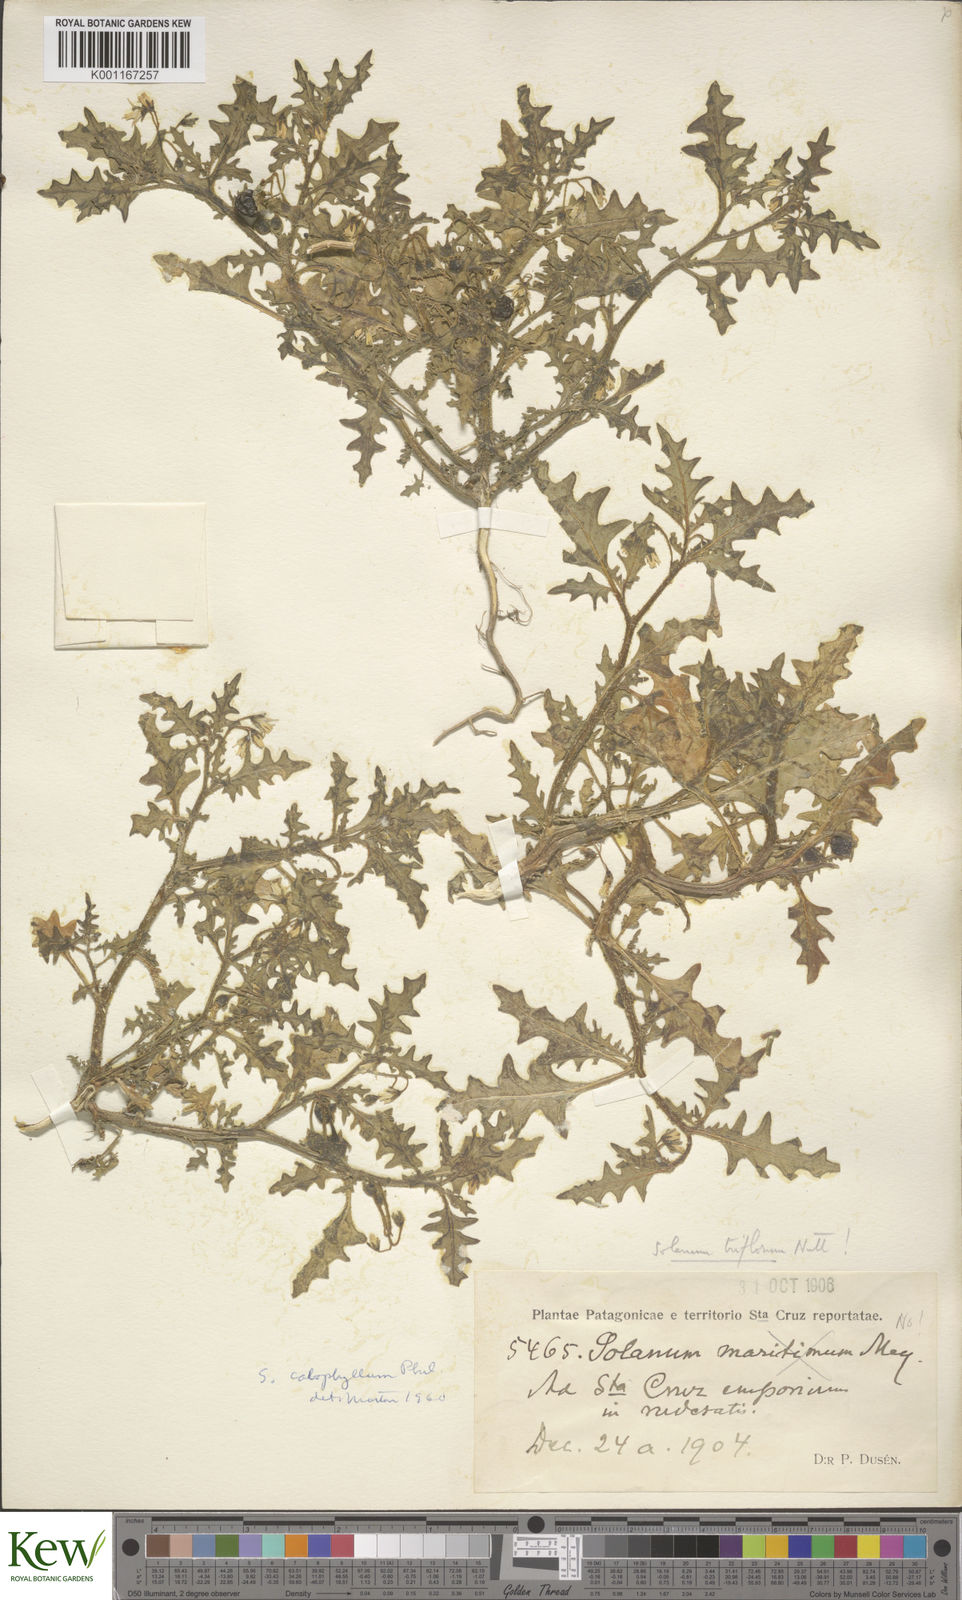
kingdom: Plantae
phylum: Tracheophyta
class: Magnoliopsida
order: Solanales
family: Solanaceae
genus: Solanum
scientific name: Solanum triflorum
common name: Small nightshade
